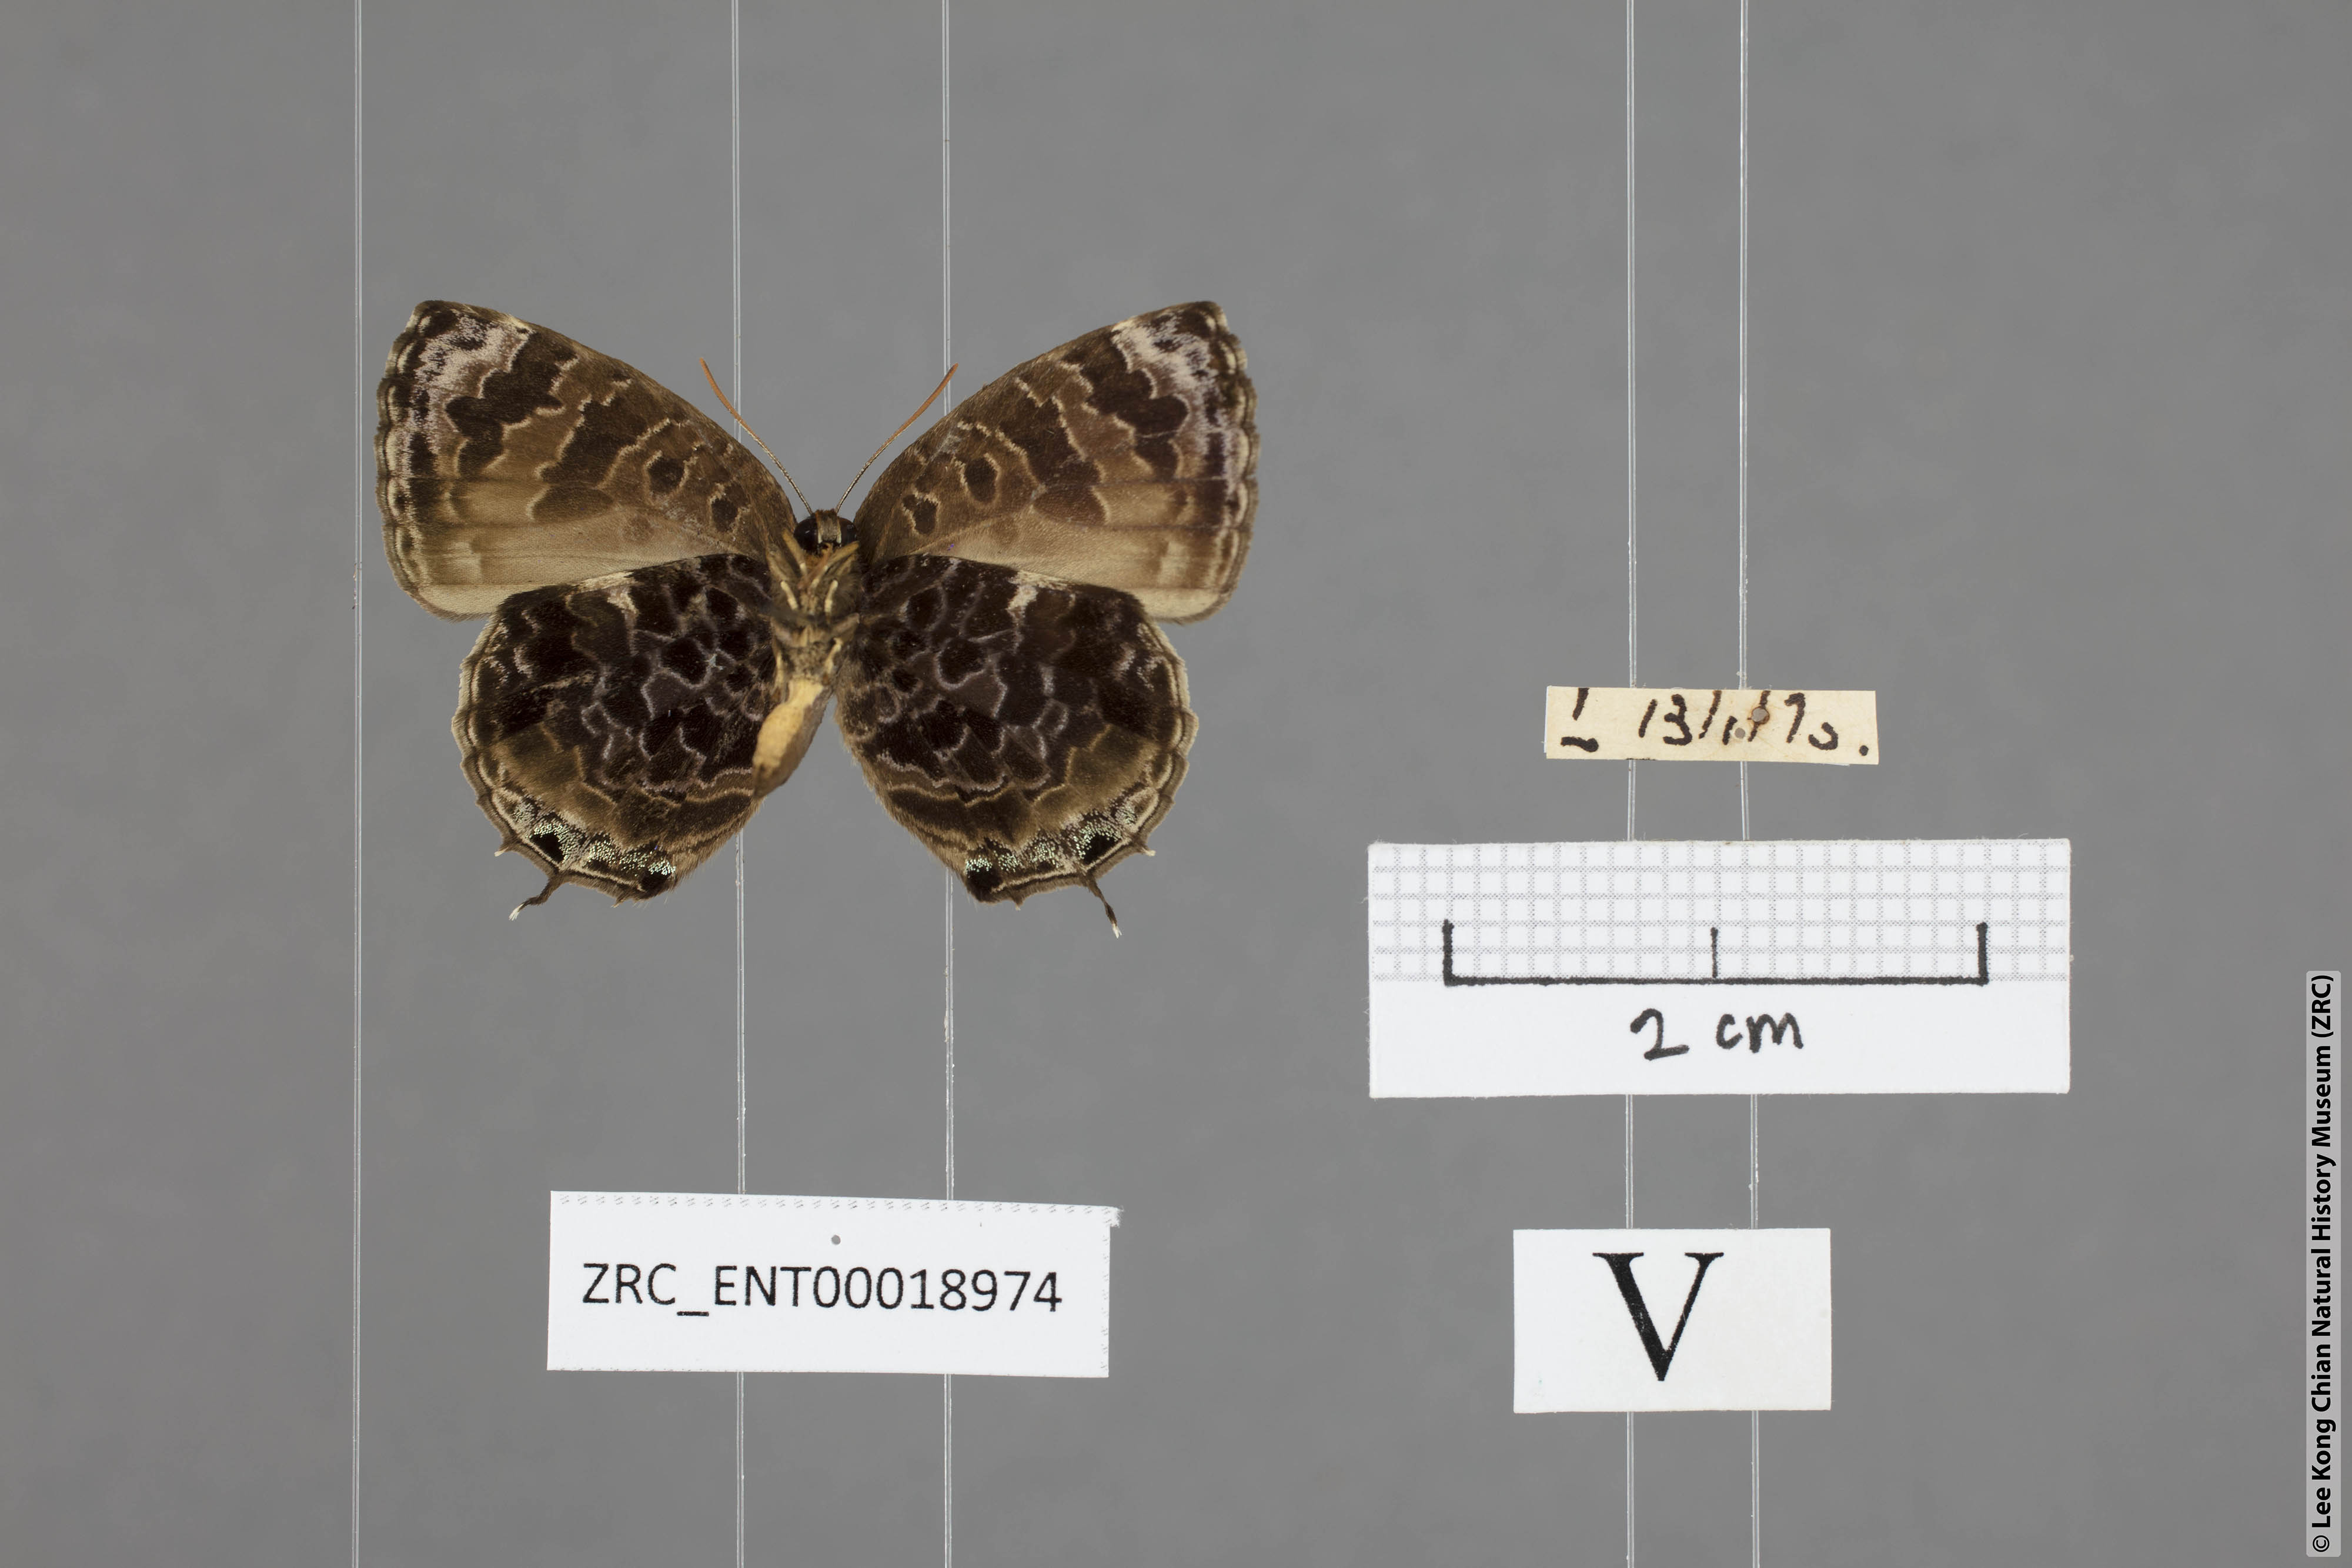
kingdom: Animalia
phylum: Arthropoda
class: Insecta
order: Lepidoptera
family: Lycaenidae
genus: Arhopala
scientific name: Arhopala abseus
